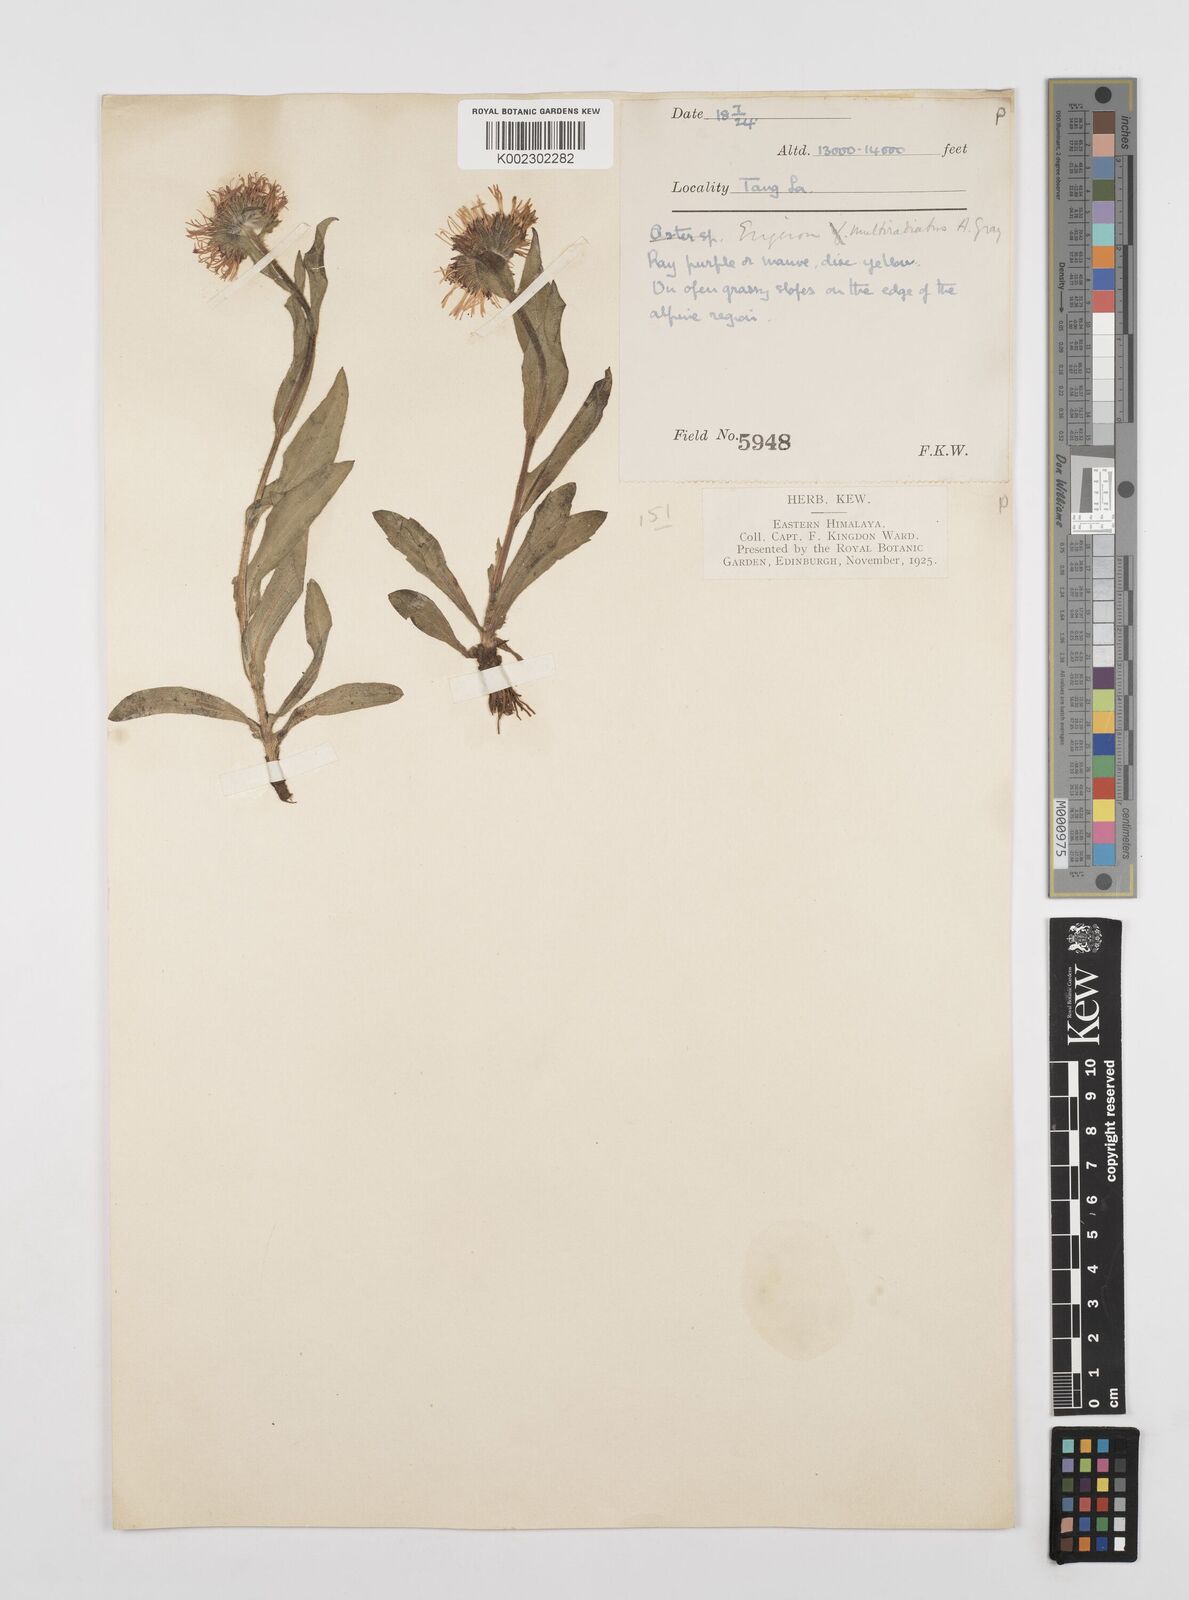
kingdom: Plantae
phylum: Tracheophyta
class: Magnoliopsida
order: Asterales
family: Asteraceae
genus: Erigeron
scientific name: Erigeron multiradiatus
